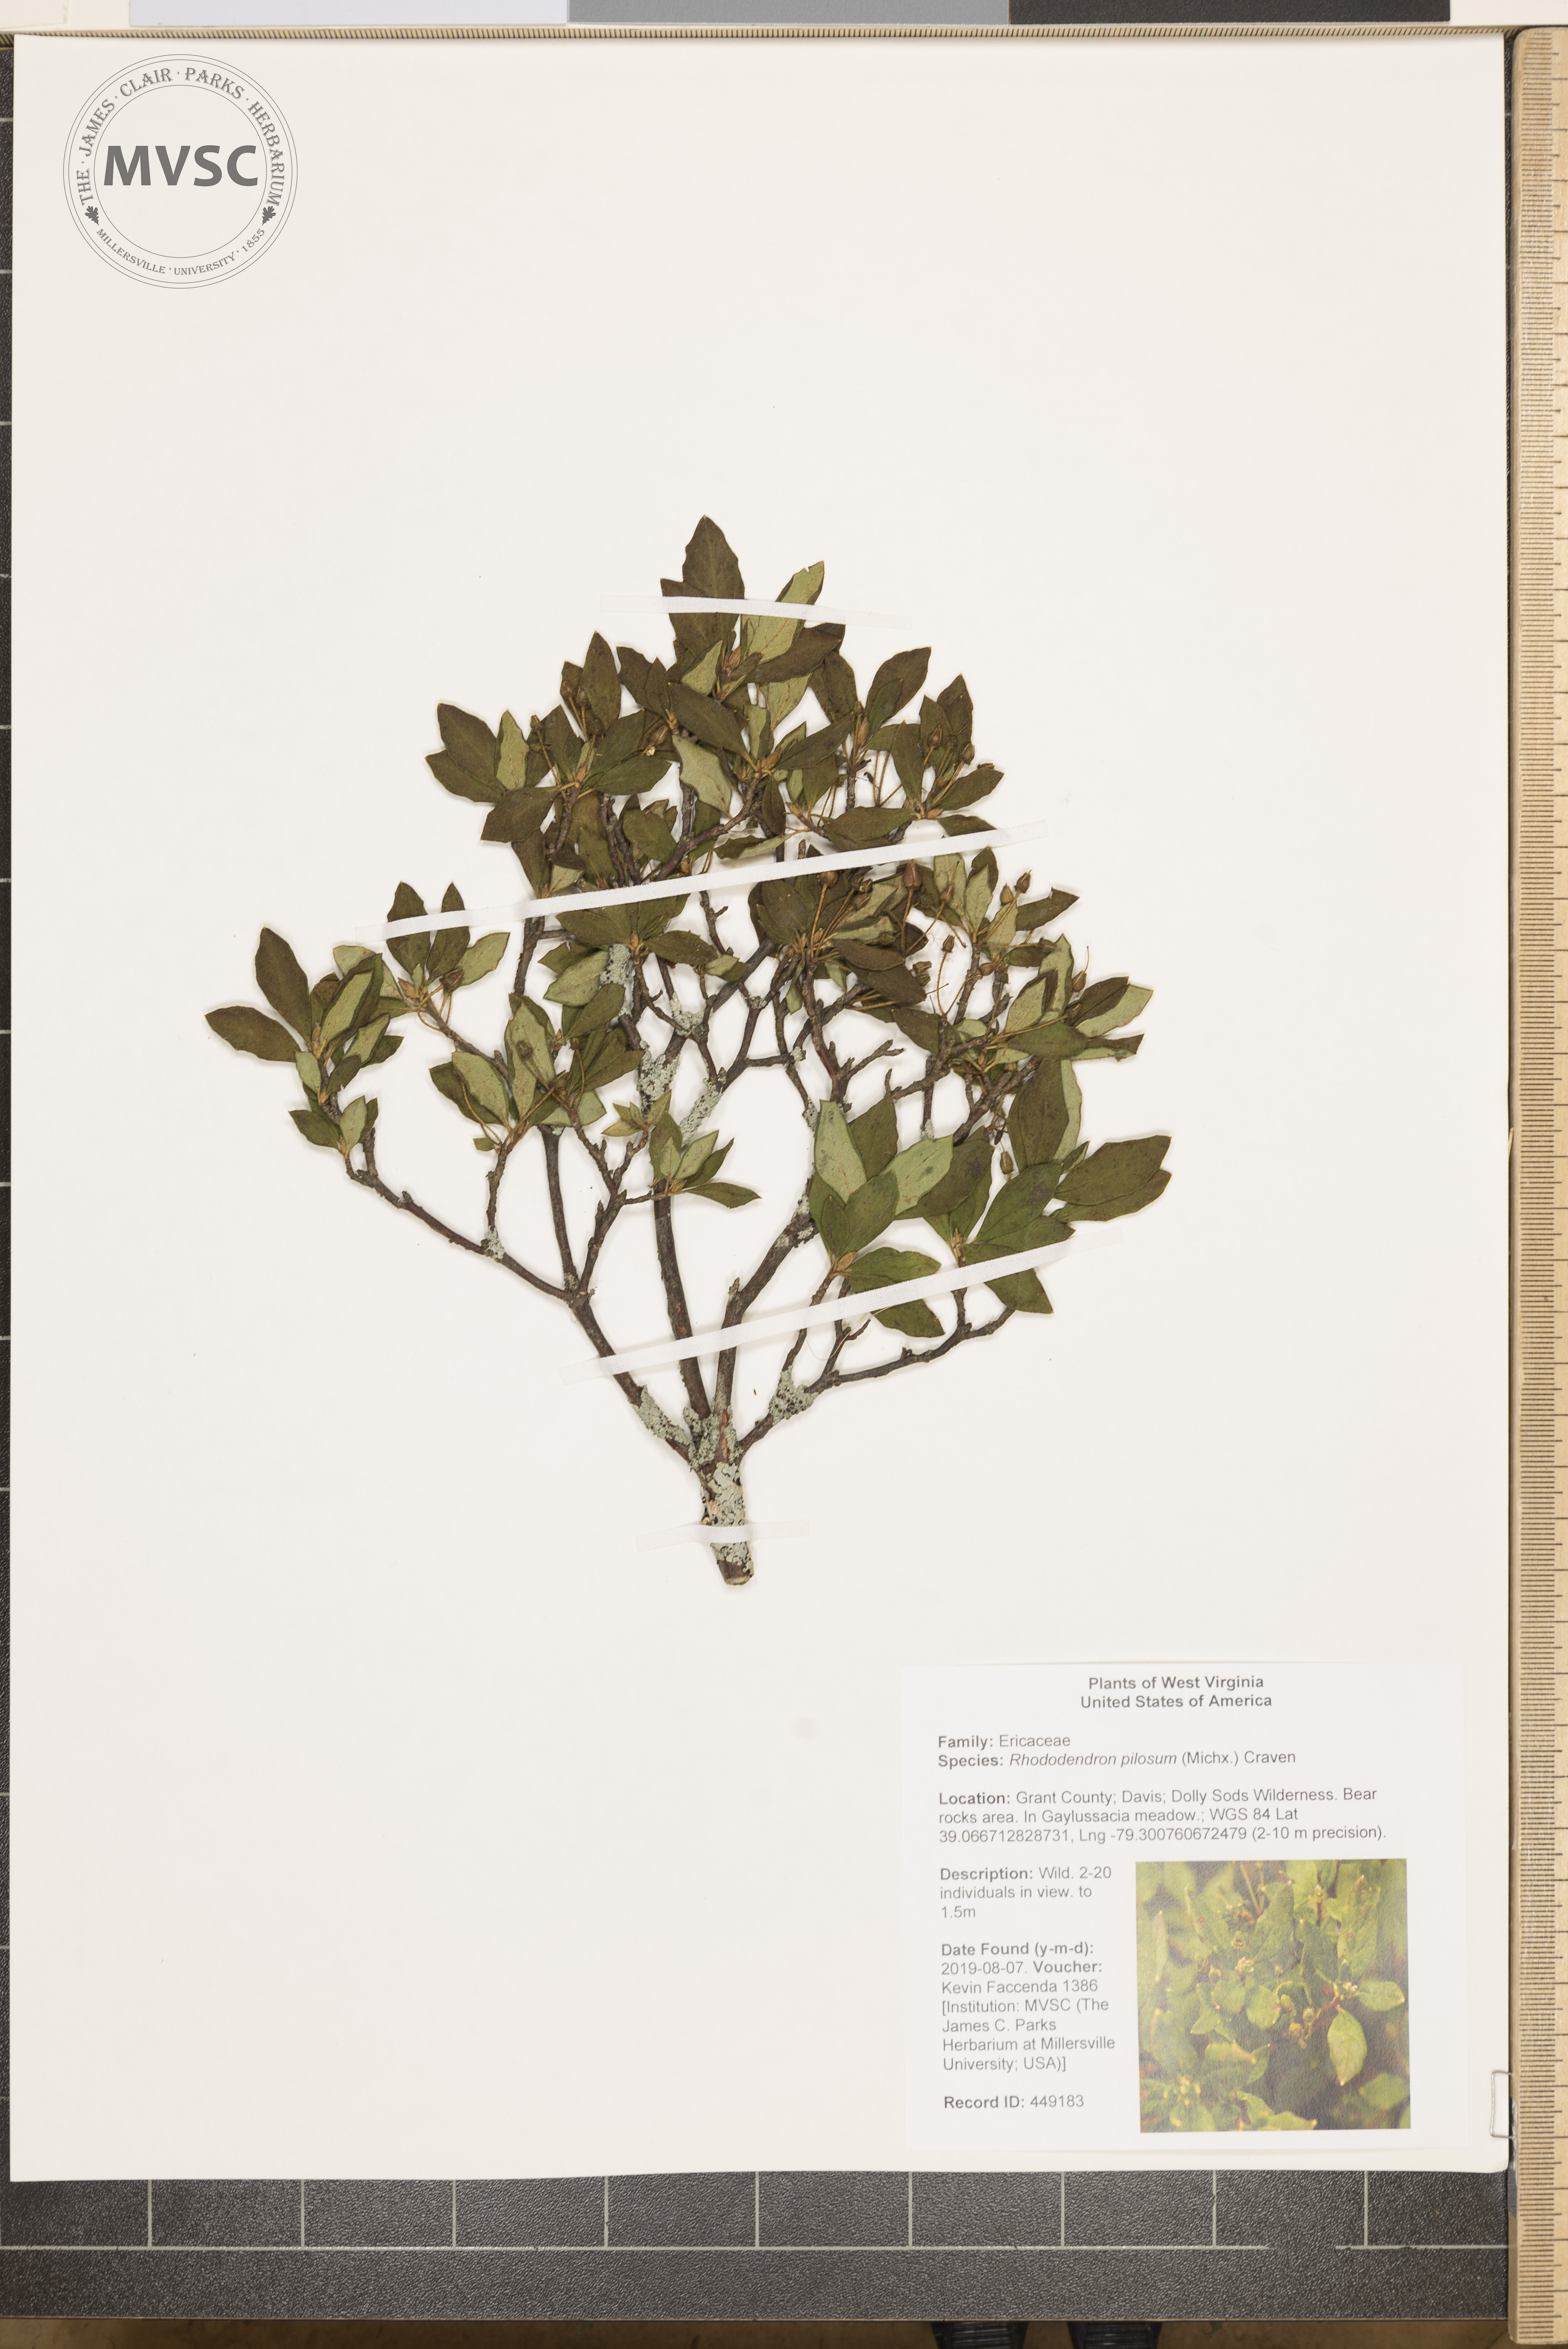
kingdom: Plantae
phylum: Tracheophyta
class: Magnoliopsida
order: Ericales
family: Ericaceae
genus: Rhododendron
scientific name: Rhododendron pilosum
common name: Hairy minniebush
